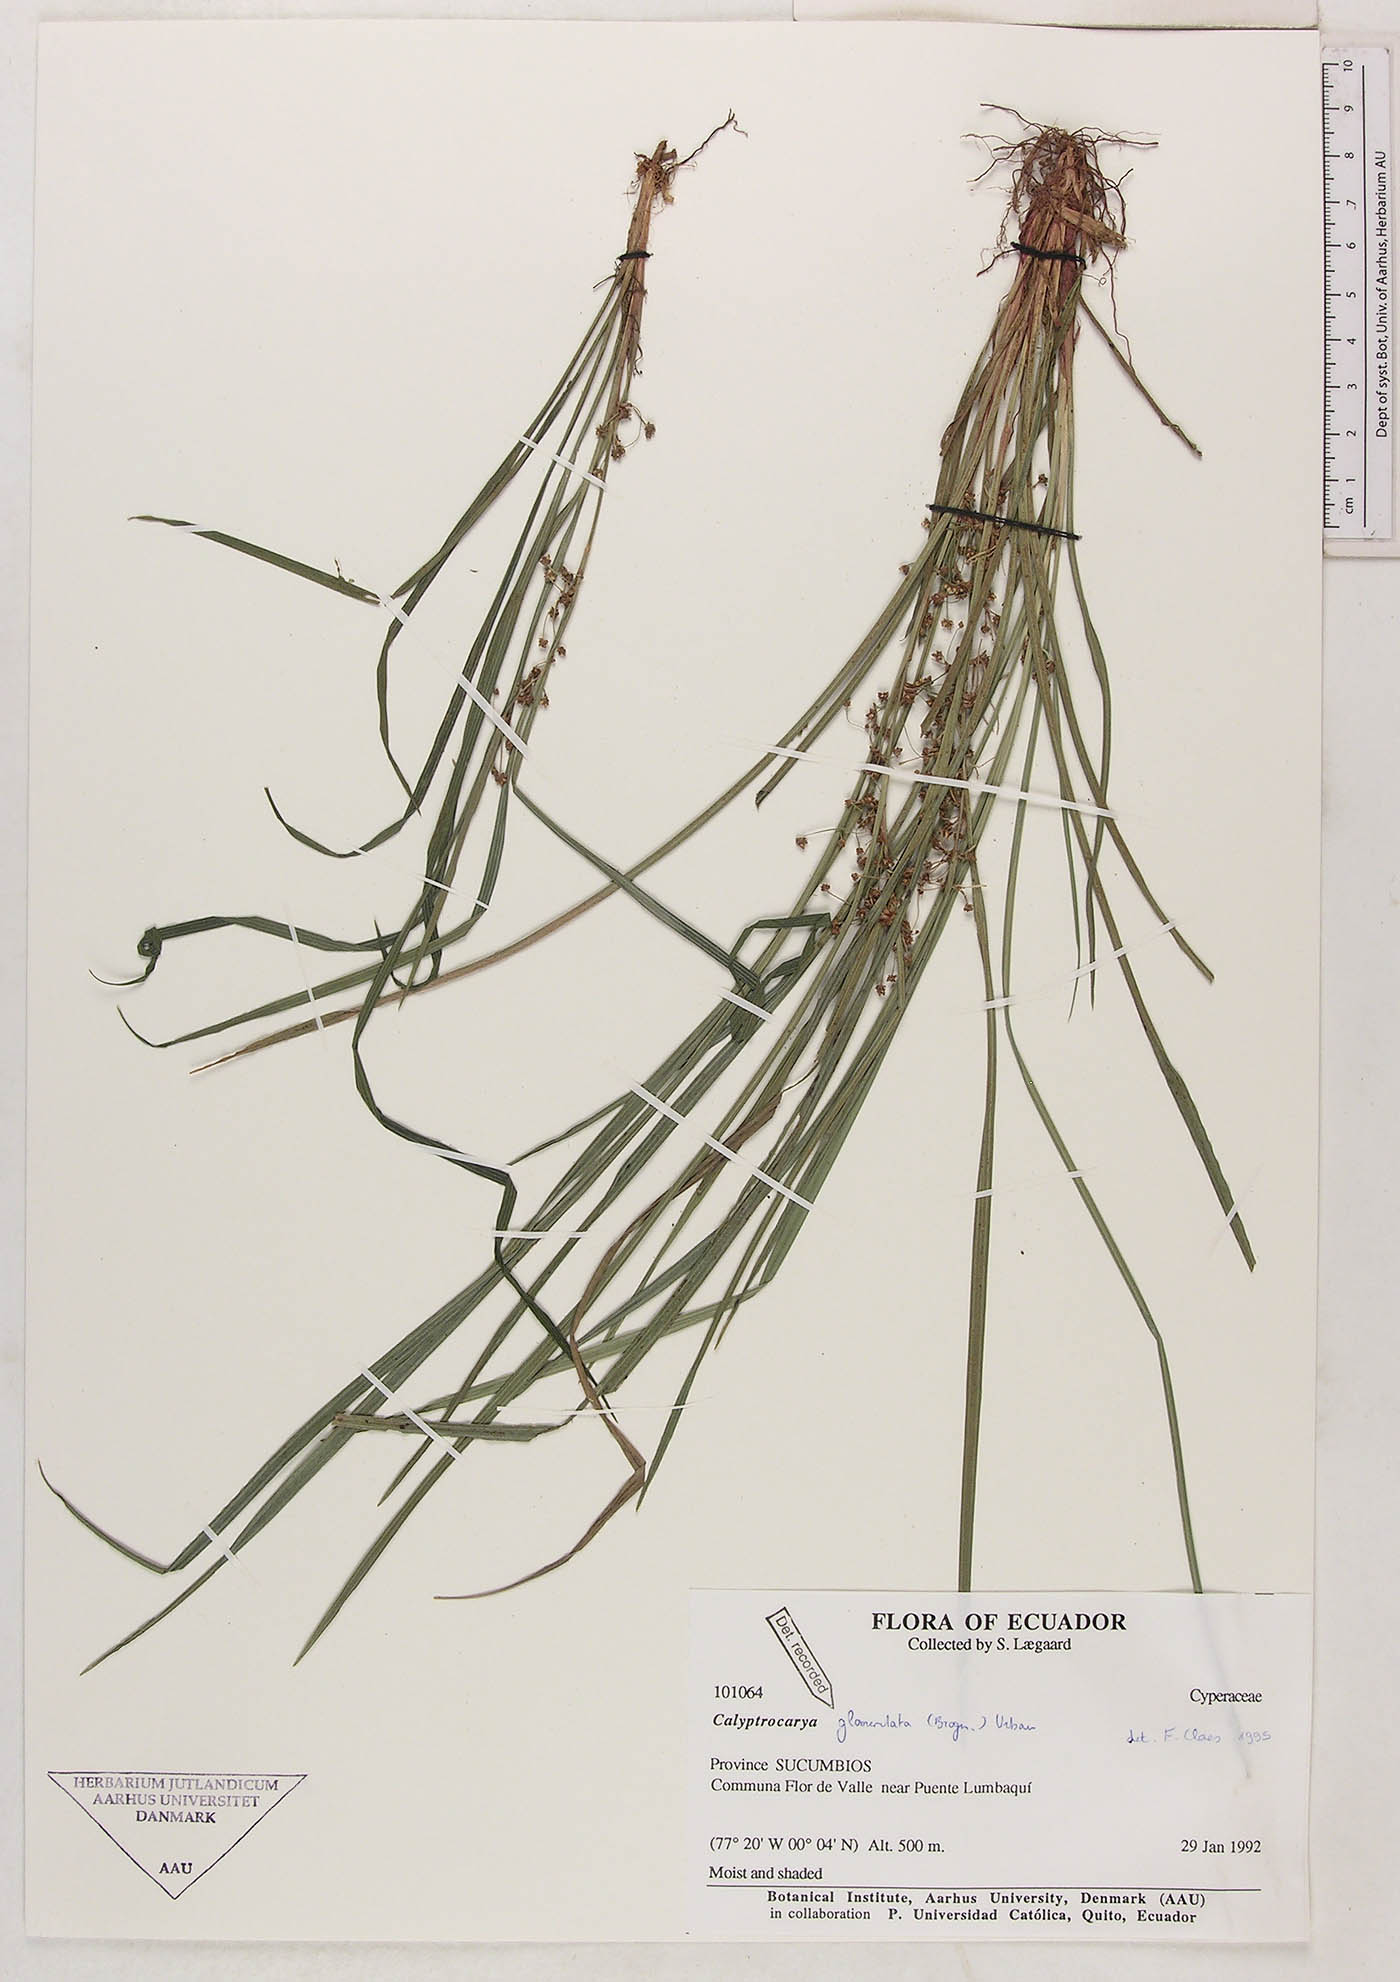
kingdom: Plantae
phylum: Tracheophyta
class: Liliopsida
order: Poales
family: Cyperaceae
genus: Calyptrocarya
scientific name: Calyptrocarya glomerulata
